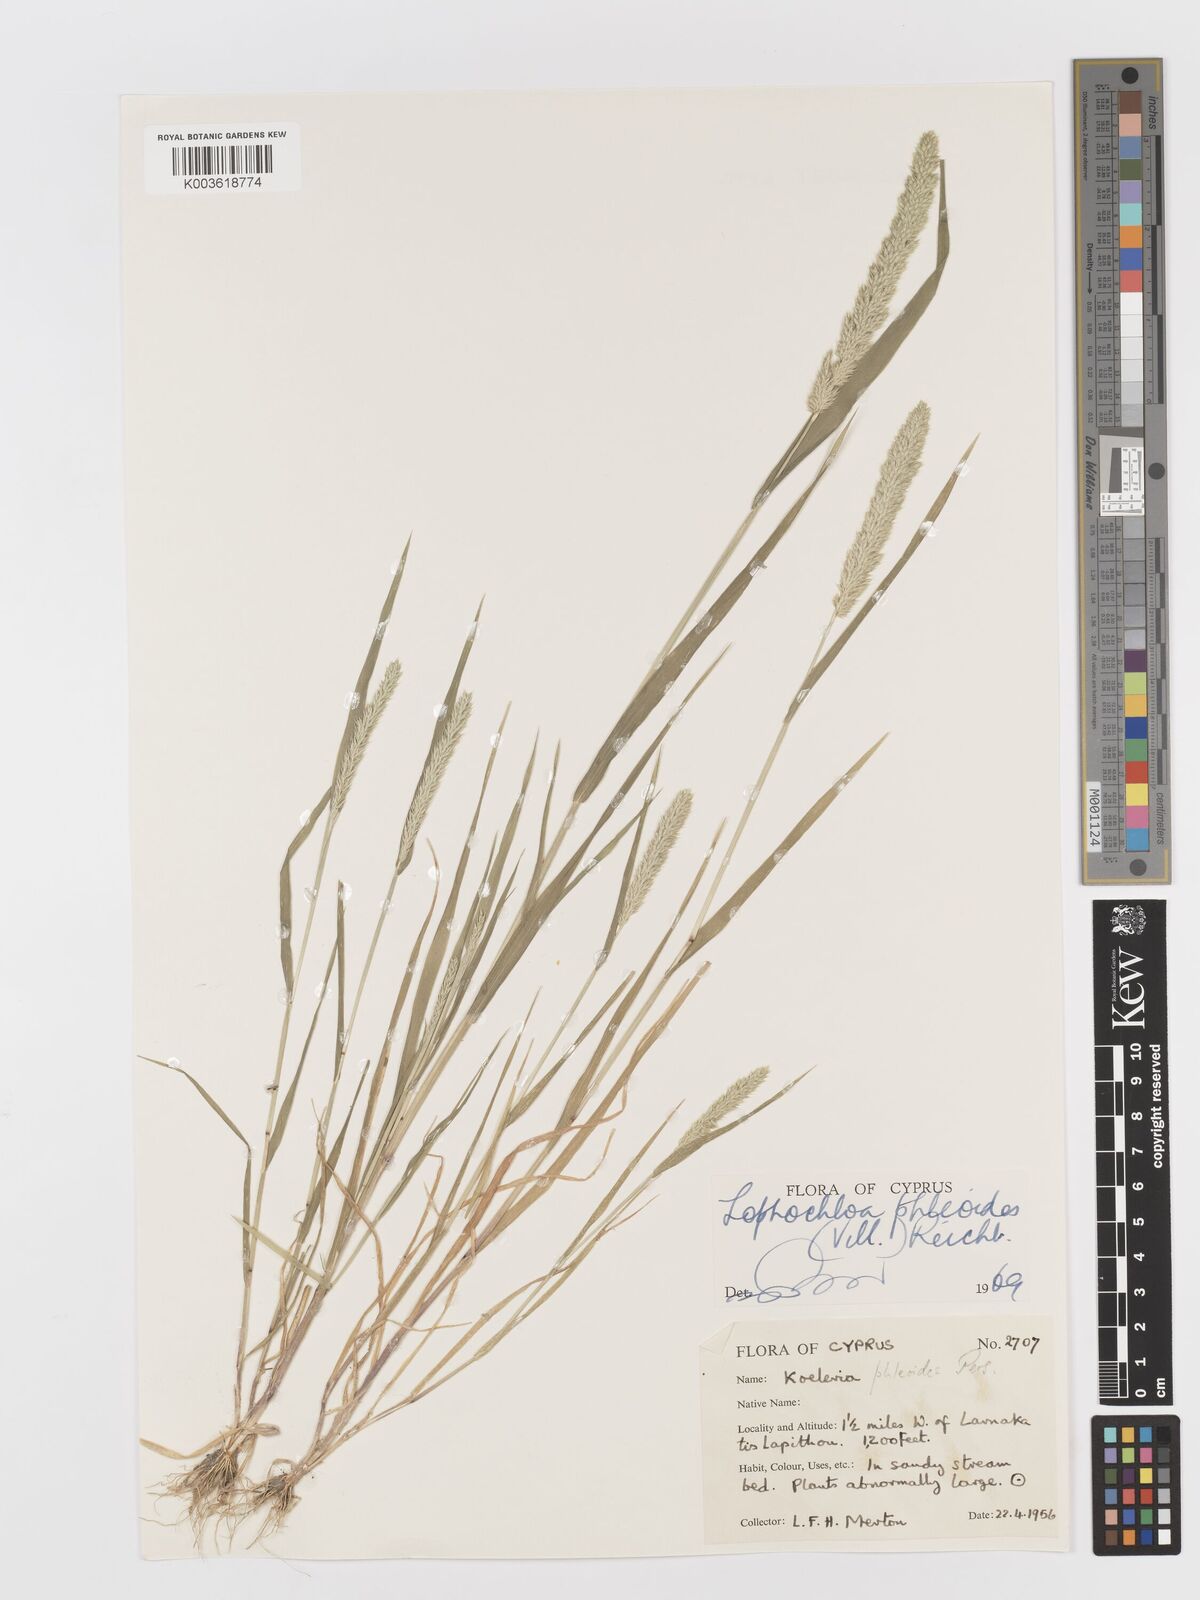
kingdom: Plantae
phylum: Tracheophyta
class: Liliopsida
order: Poales
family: Poaceae
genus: Rostraria
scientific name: Rostraria cristata
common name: Mediterranean hair-grass
